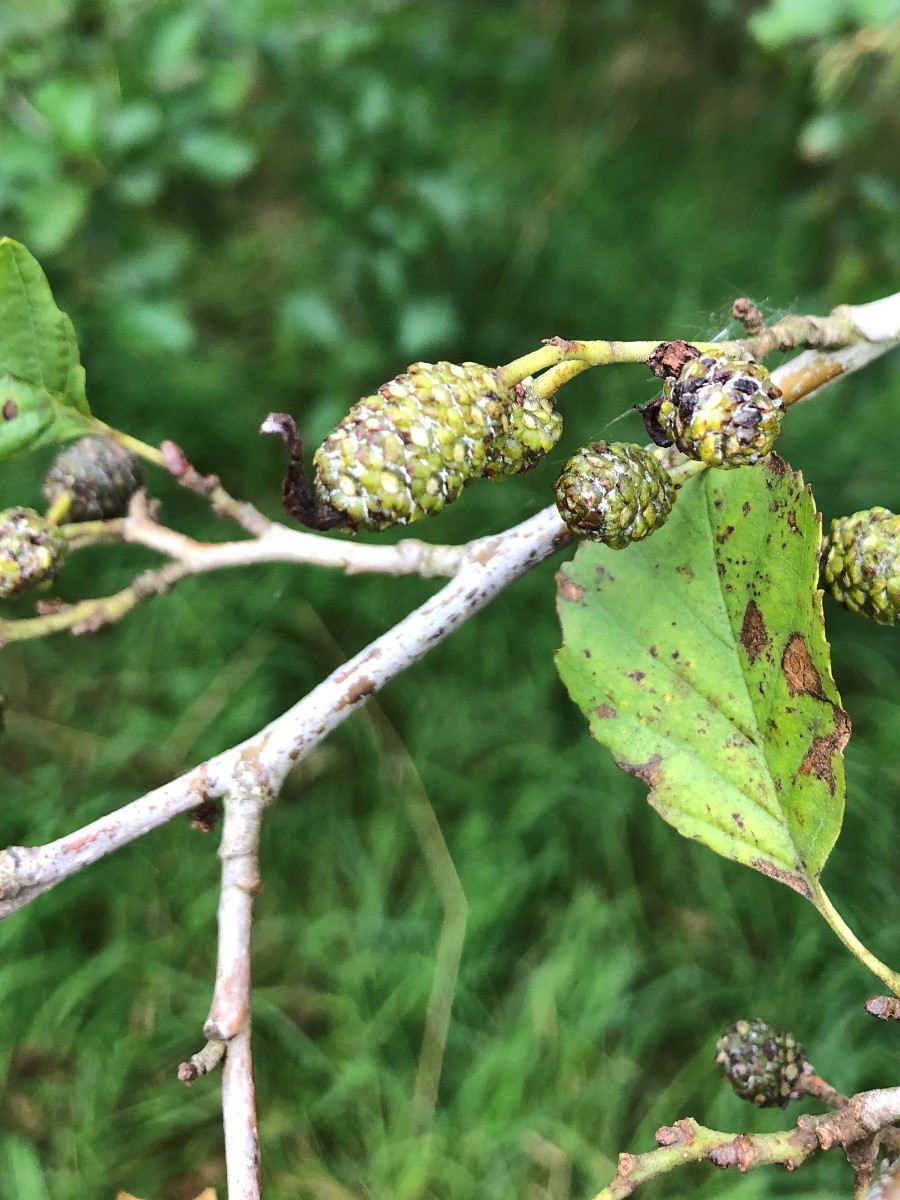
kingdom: Fungi
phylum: Ascomycota
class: Taphrinomycetes
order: Taphrinales
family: Taphrinaceae
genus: Taphrina
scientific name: Taphrina alni
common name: Alder tongue
